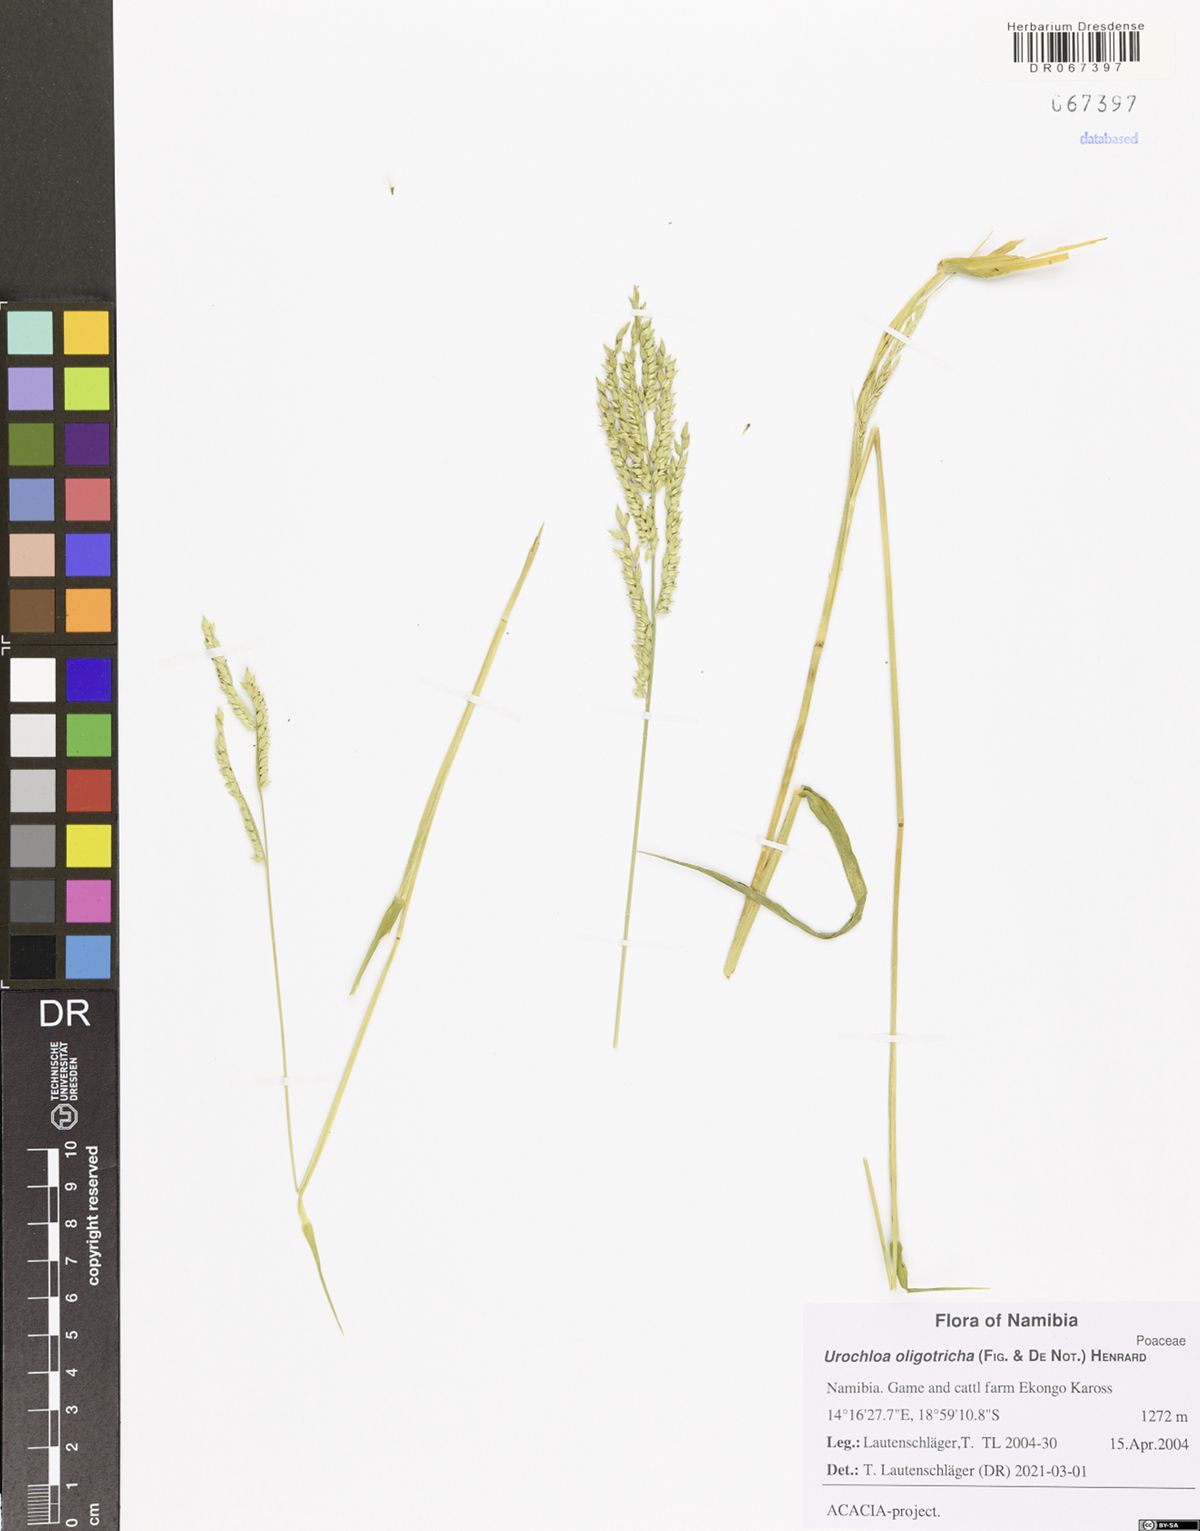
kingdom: Plantae
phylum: Tracheophyta
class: Liliopsida
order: Poales
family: Poaceae
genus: Urochloa
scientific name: Urochloa oligotricha
